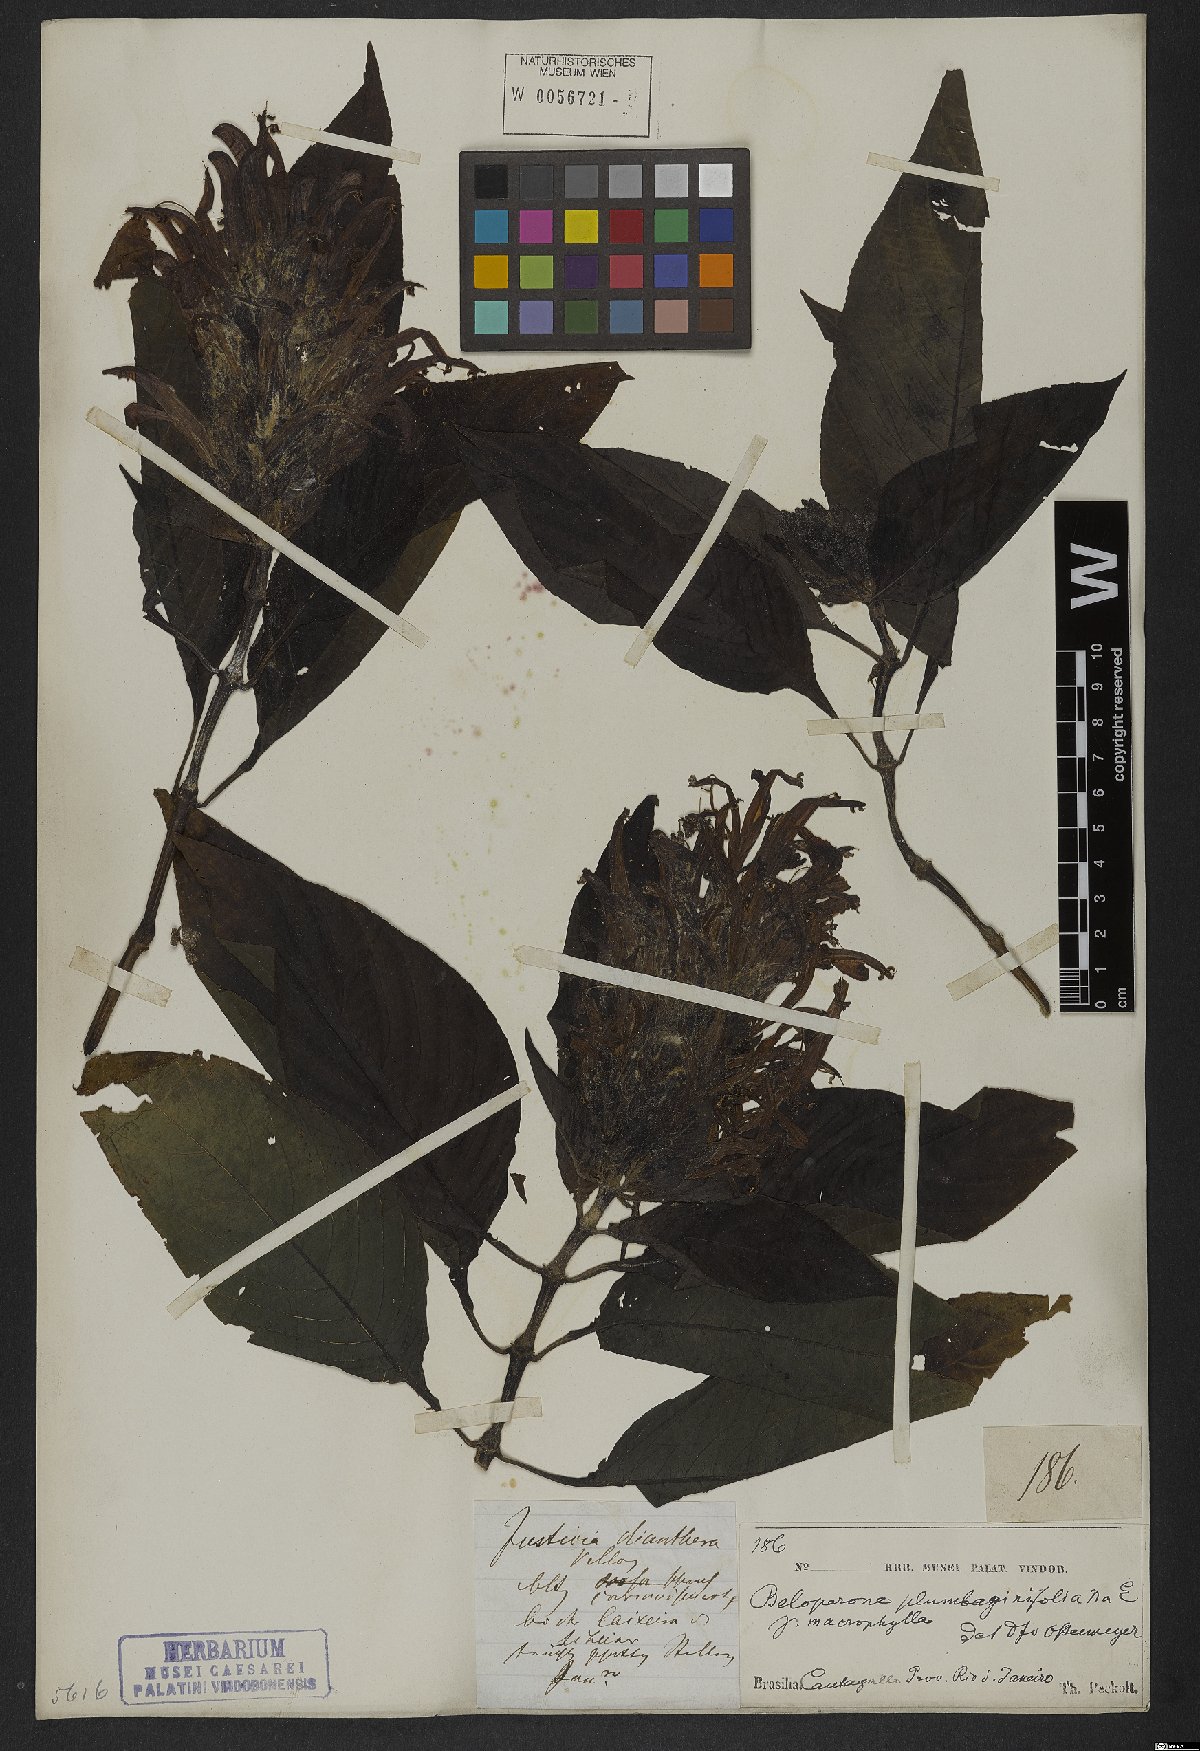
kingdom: Plantae
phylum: Tracheophyta
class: Magnoliopsida
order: Lamiales
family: Acanthaceae
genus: Justicia
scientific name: Justicia plumbaginifolia
